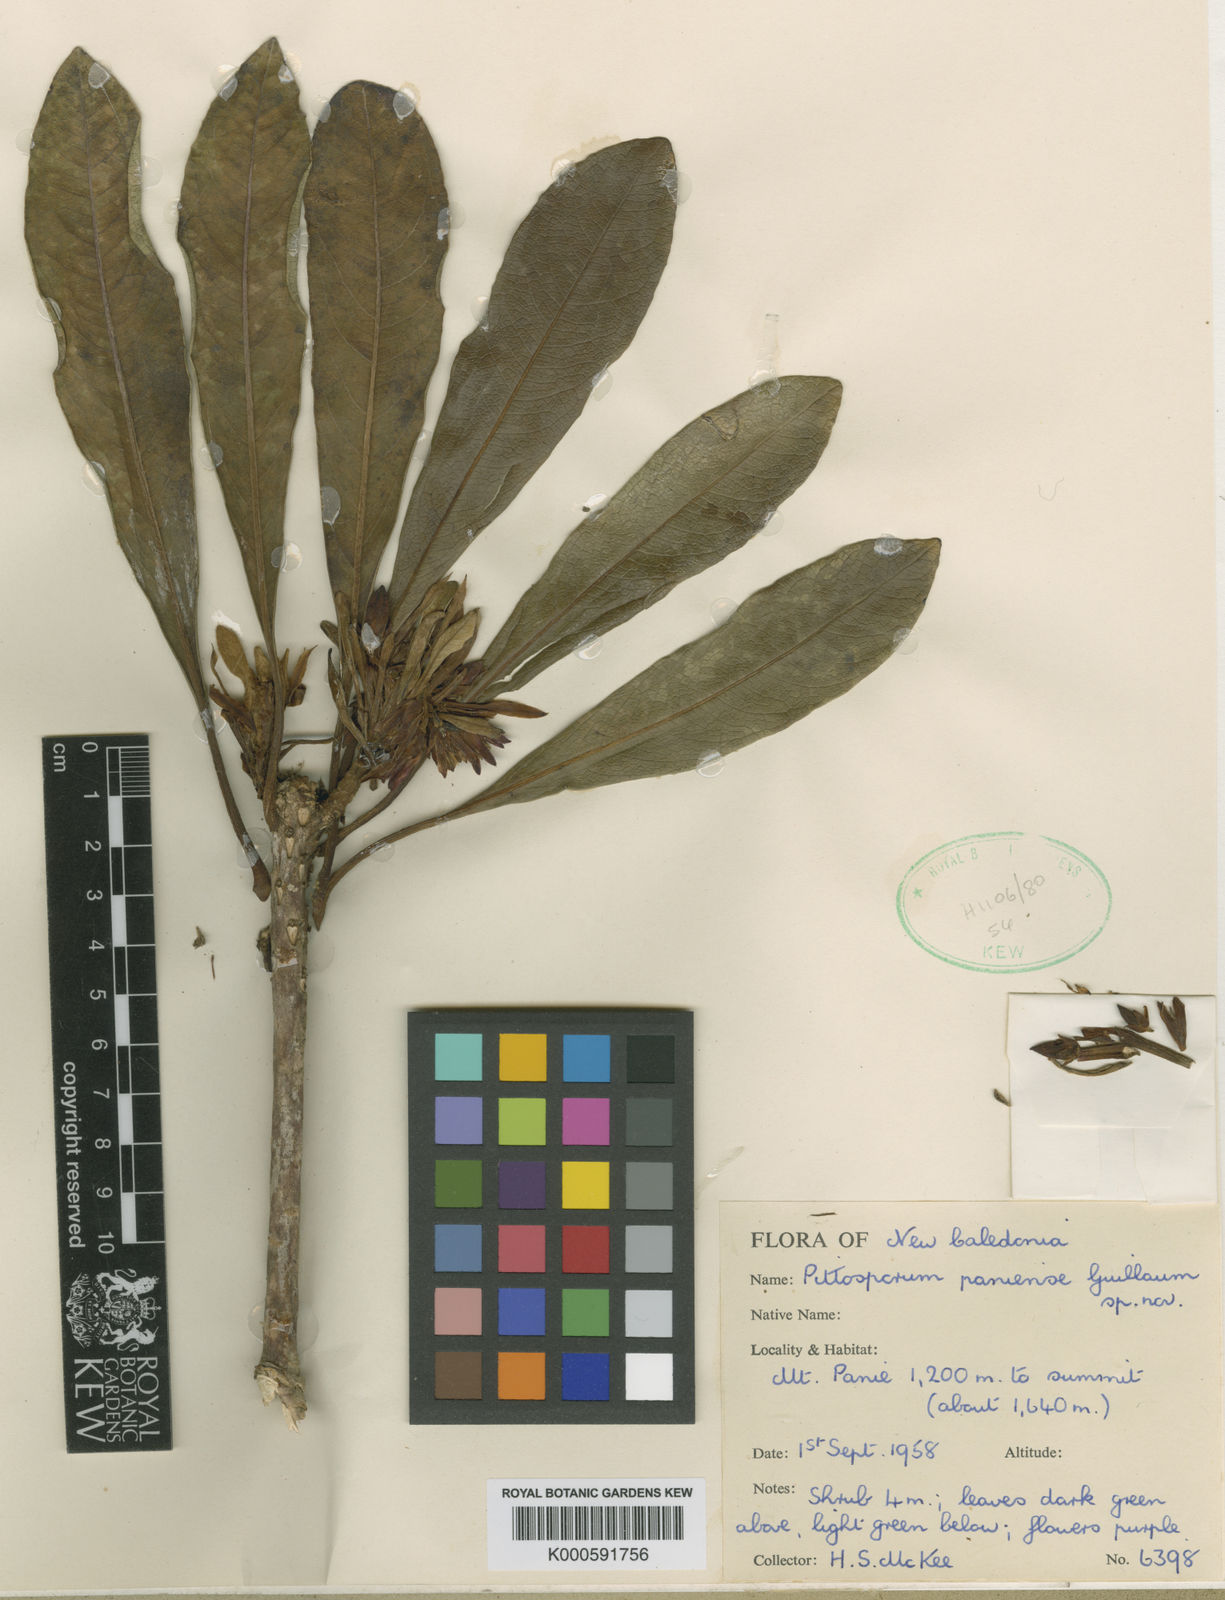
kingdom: Plantae
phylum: Tracheophyta
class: Magnoliopsida
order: Apiales
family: Pittosporaceae
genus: Pittosporum
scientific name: Pittosporum paniense
